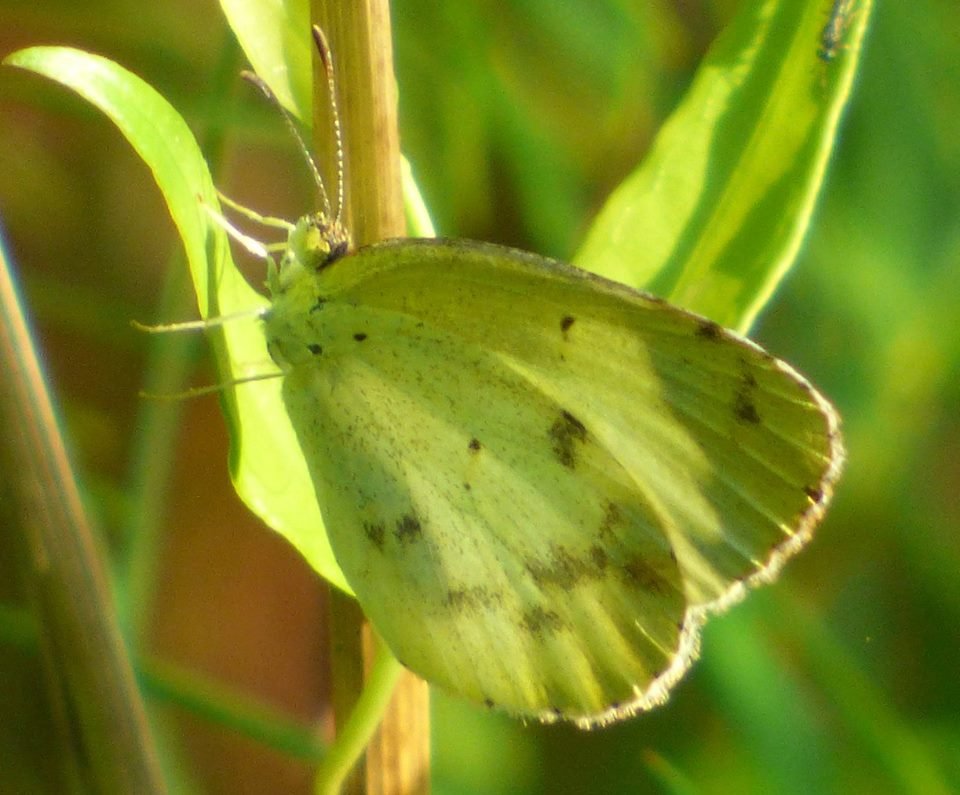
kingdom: Animalia
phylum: Arthropoda
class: Insecta
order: Lepidoptera
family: Pieridae
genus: Pyrisitia
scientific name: Pyrisitia lisa
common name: Little Yellow
